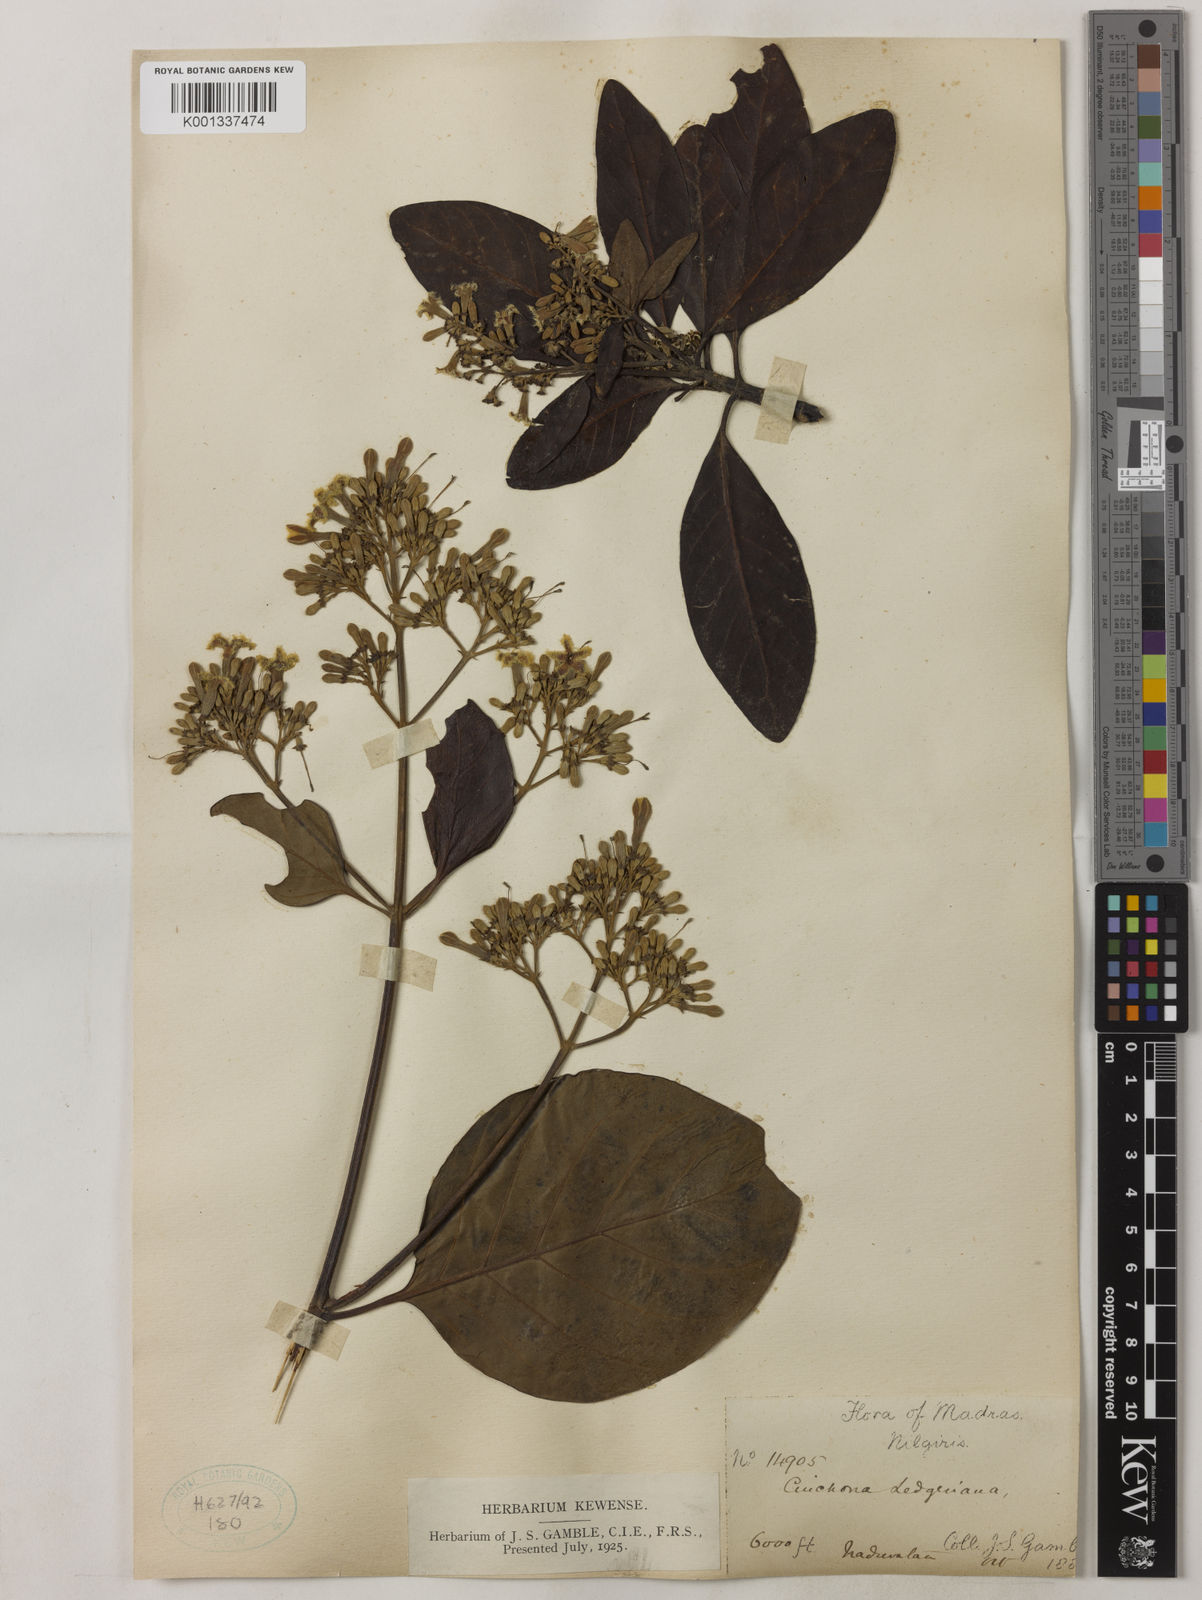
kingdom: Plantae
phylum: Tracheophyta
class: Magnoliopsida
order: Gentianales
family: Rubiaceae
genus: Cinchona
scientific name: Cinchona calisaya
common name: Ledgerbark
